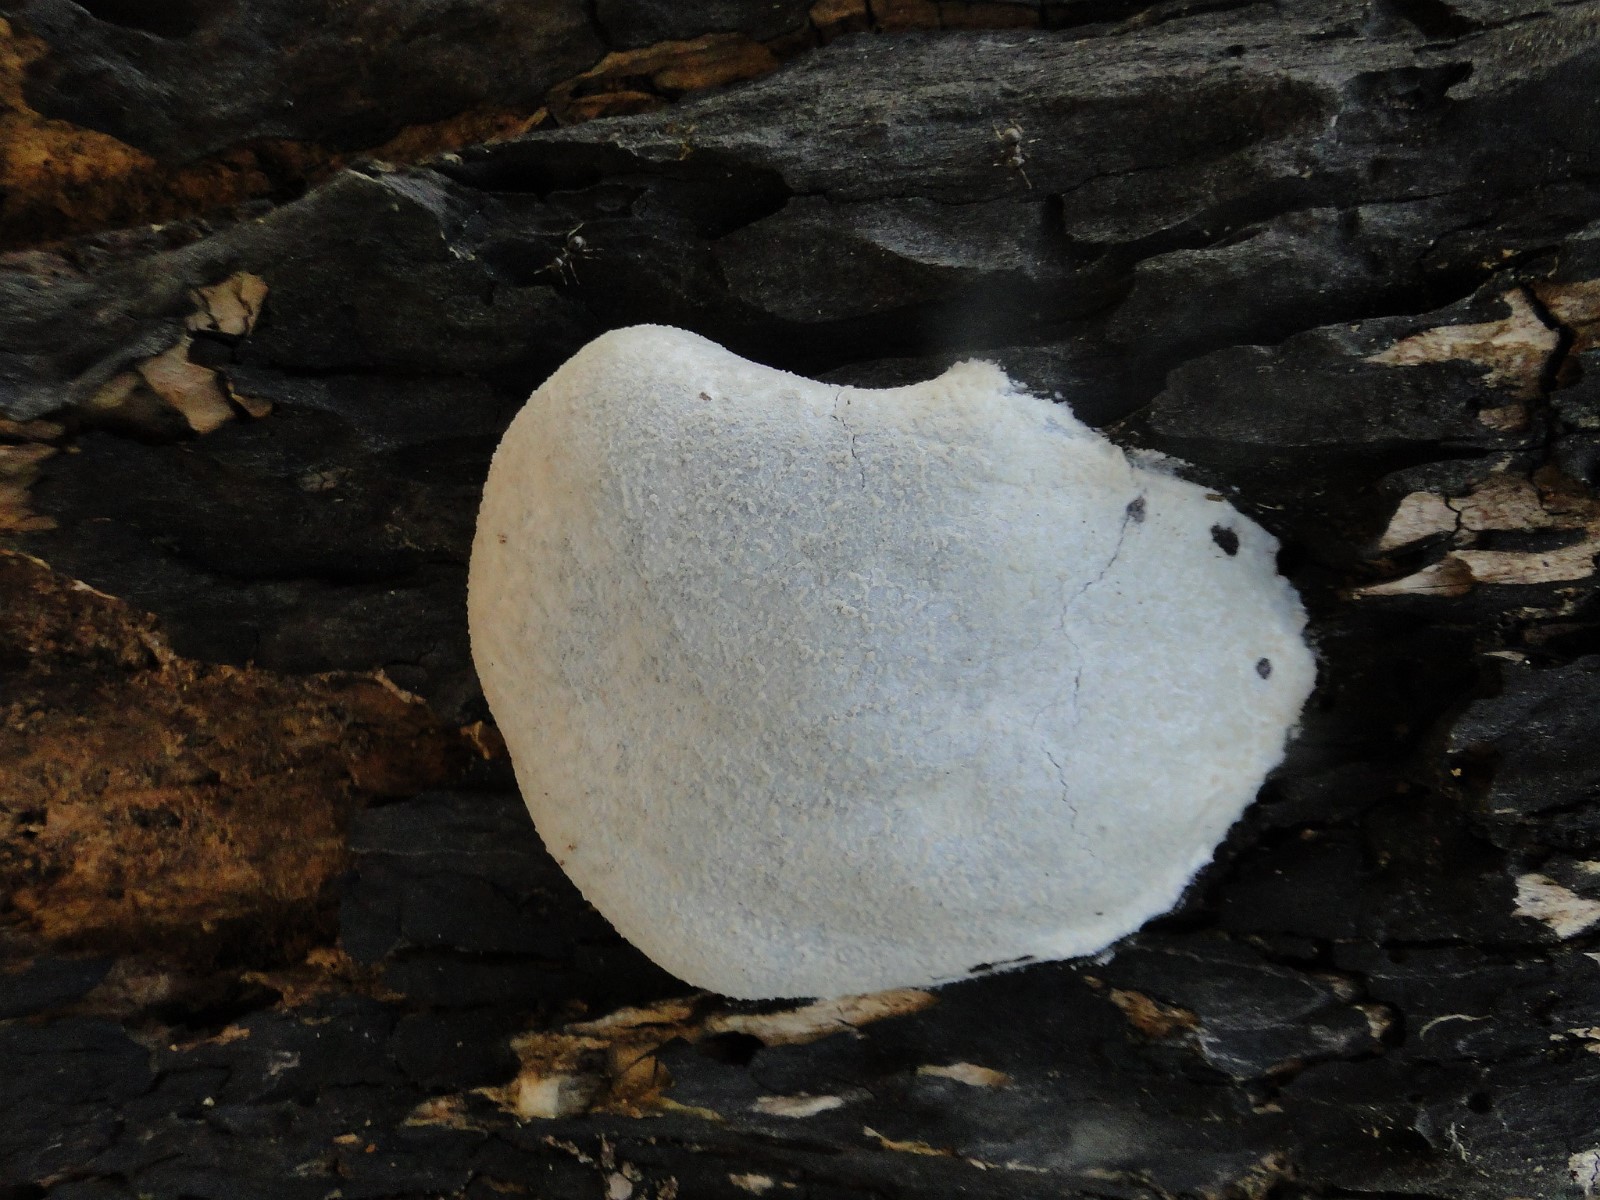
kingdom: Protozoa
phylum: Mycetozoa
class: Myxomycetes
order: Cribrariales
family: Tubiferaceae
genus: Reticularia
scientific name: Reticularia lycoperdon
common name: skinnende støvpude
